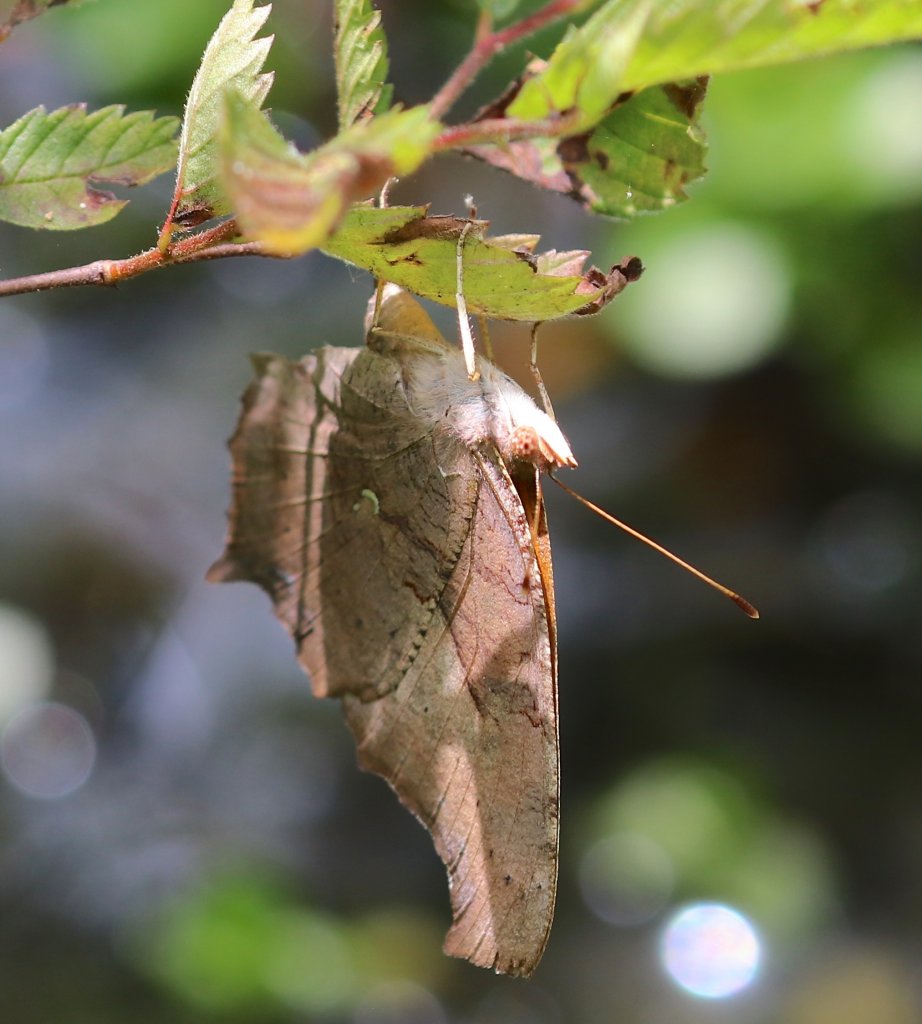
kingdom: Animalia
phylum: Arthropoda
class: Insecta
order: Lepidoptera
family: Nymphalidae
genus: Polygonia
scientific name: Polygonia interrogationis
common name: Question Mark
